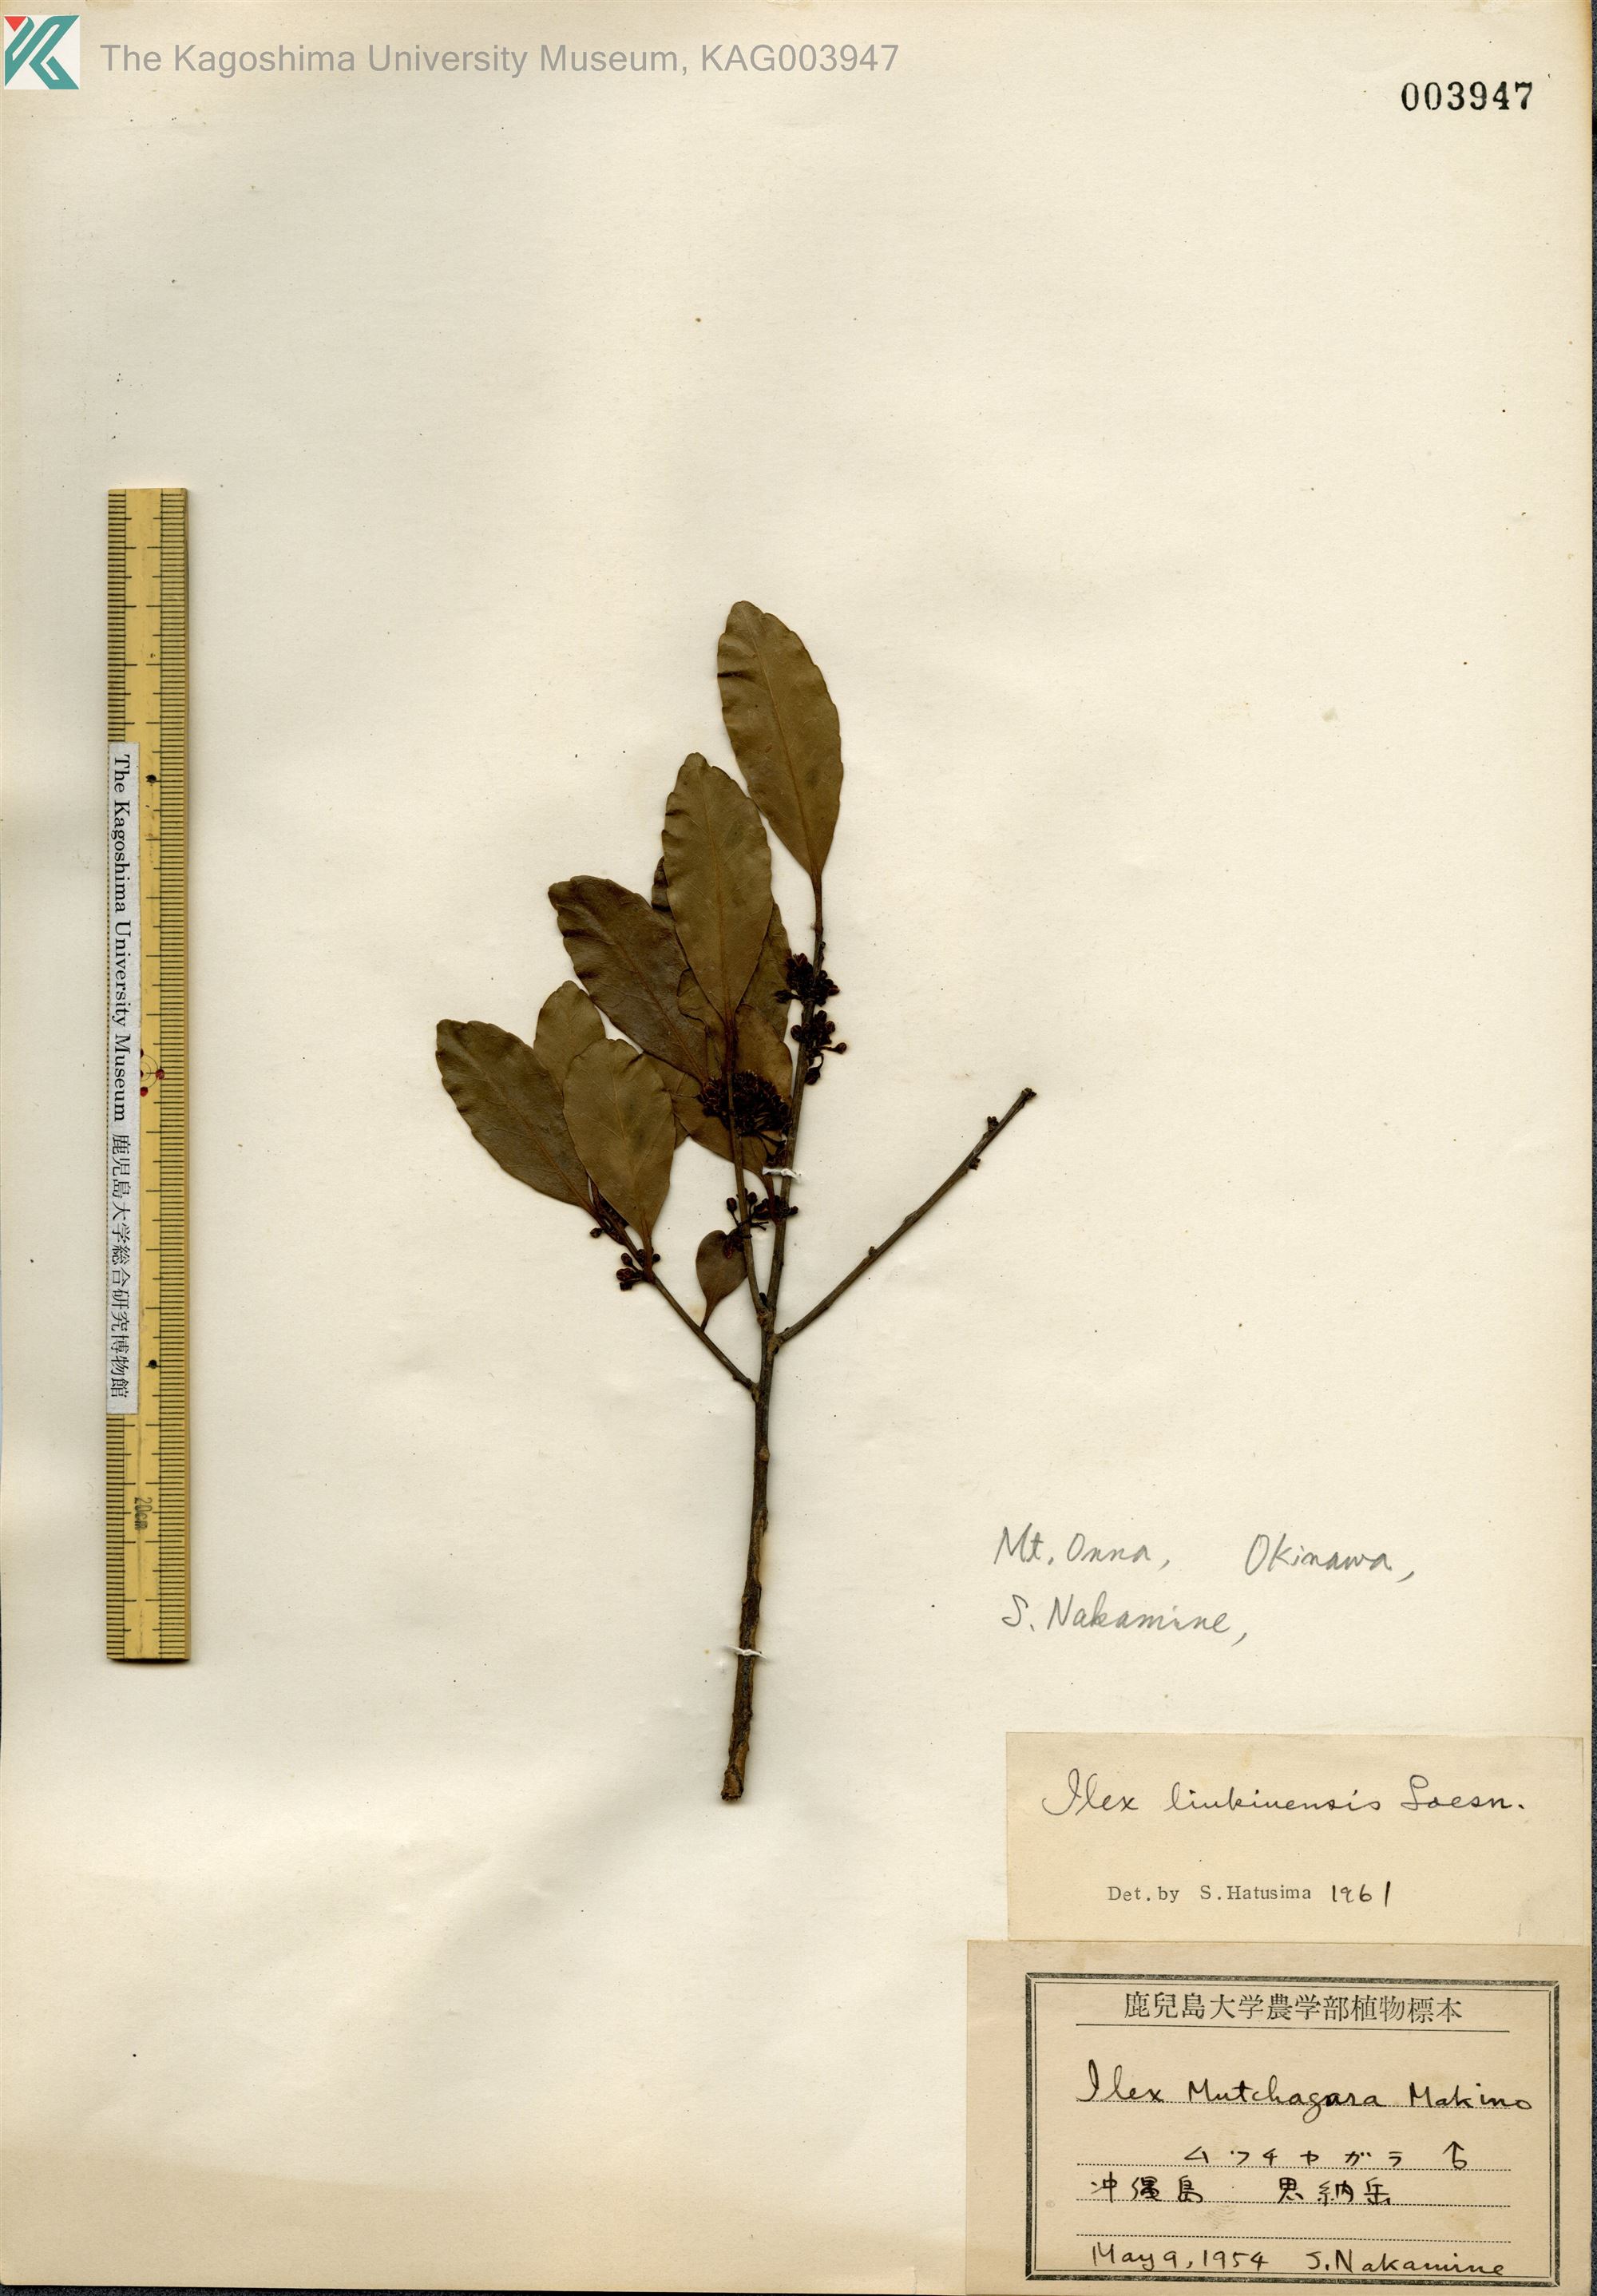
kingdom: Plantae
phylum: Tracheophyta
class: Magnoliopsida
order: Aquifoliales
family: Aquifoliaceae
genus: Ilex
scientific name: Ilex liukiuensis
